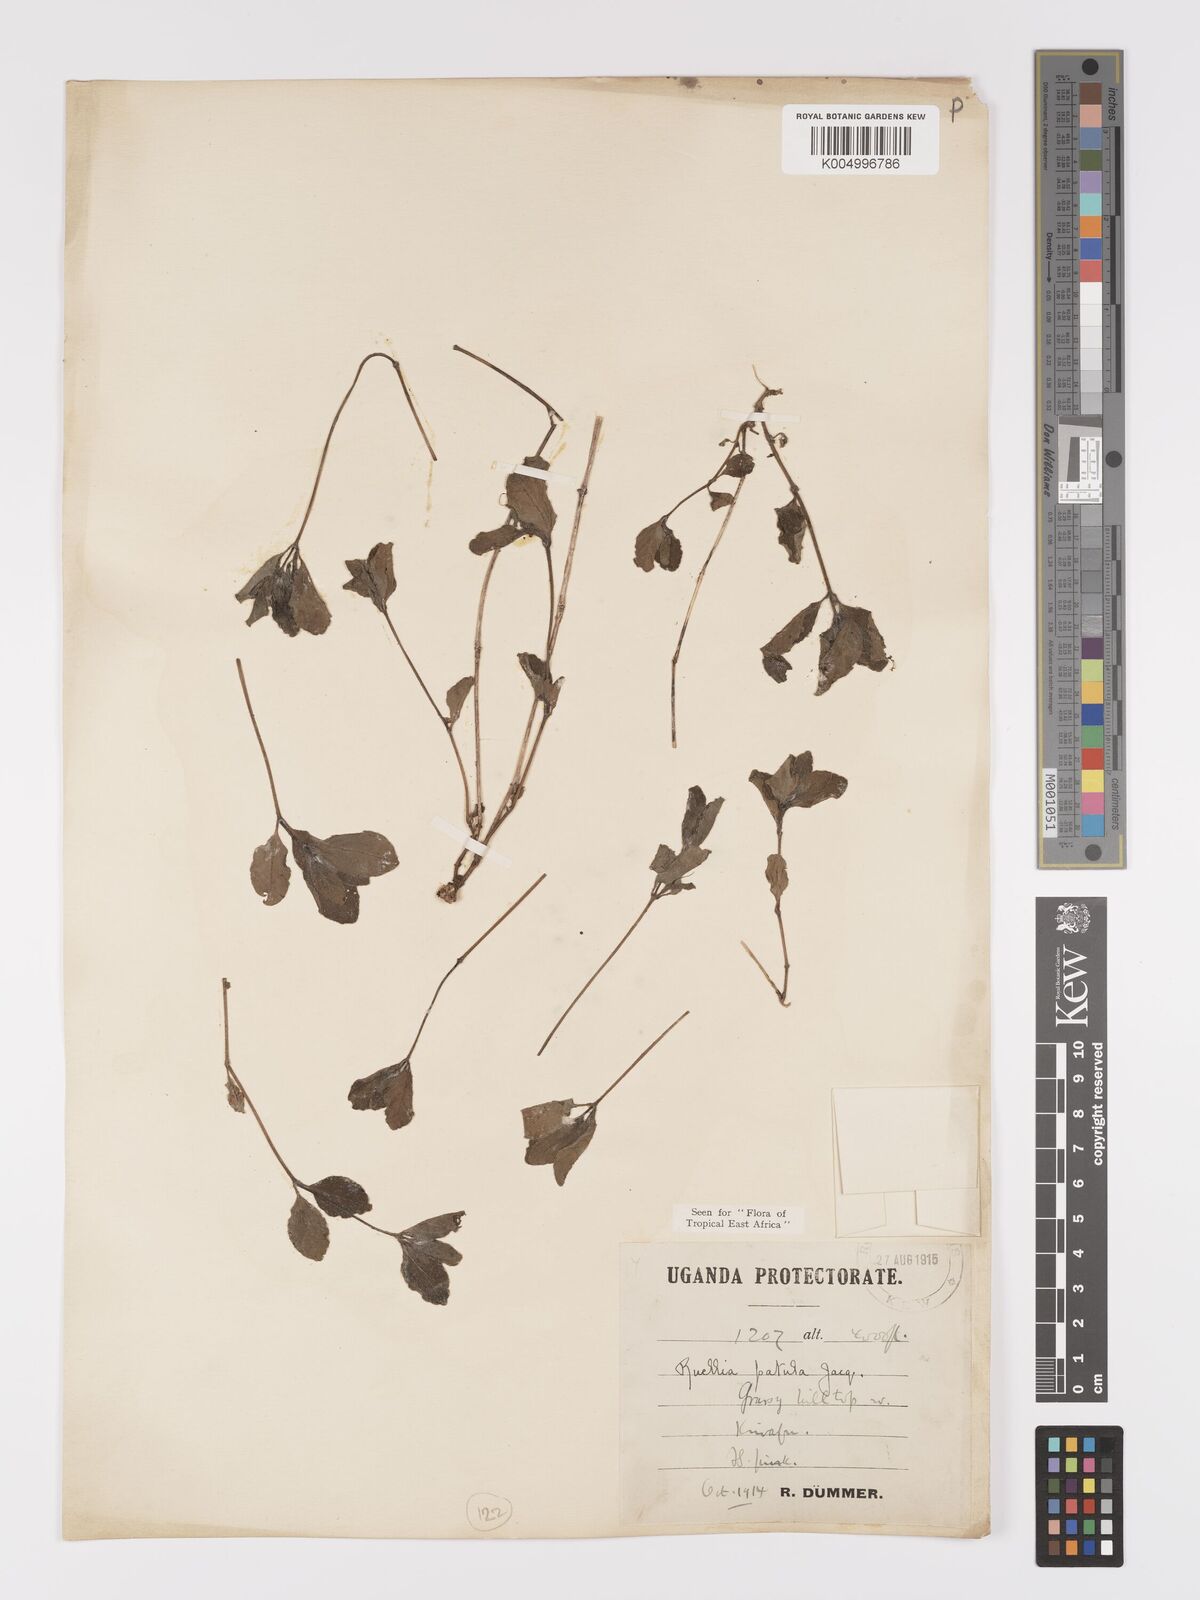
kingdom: Plantae
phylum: Tracheophyta
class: Magnoliopsida
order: Lamiales
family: Acanthaceae
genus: Ruellia
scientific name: Ruellia patula
